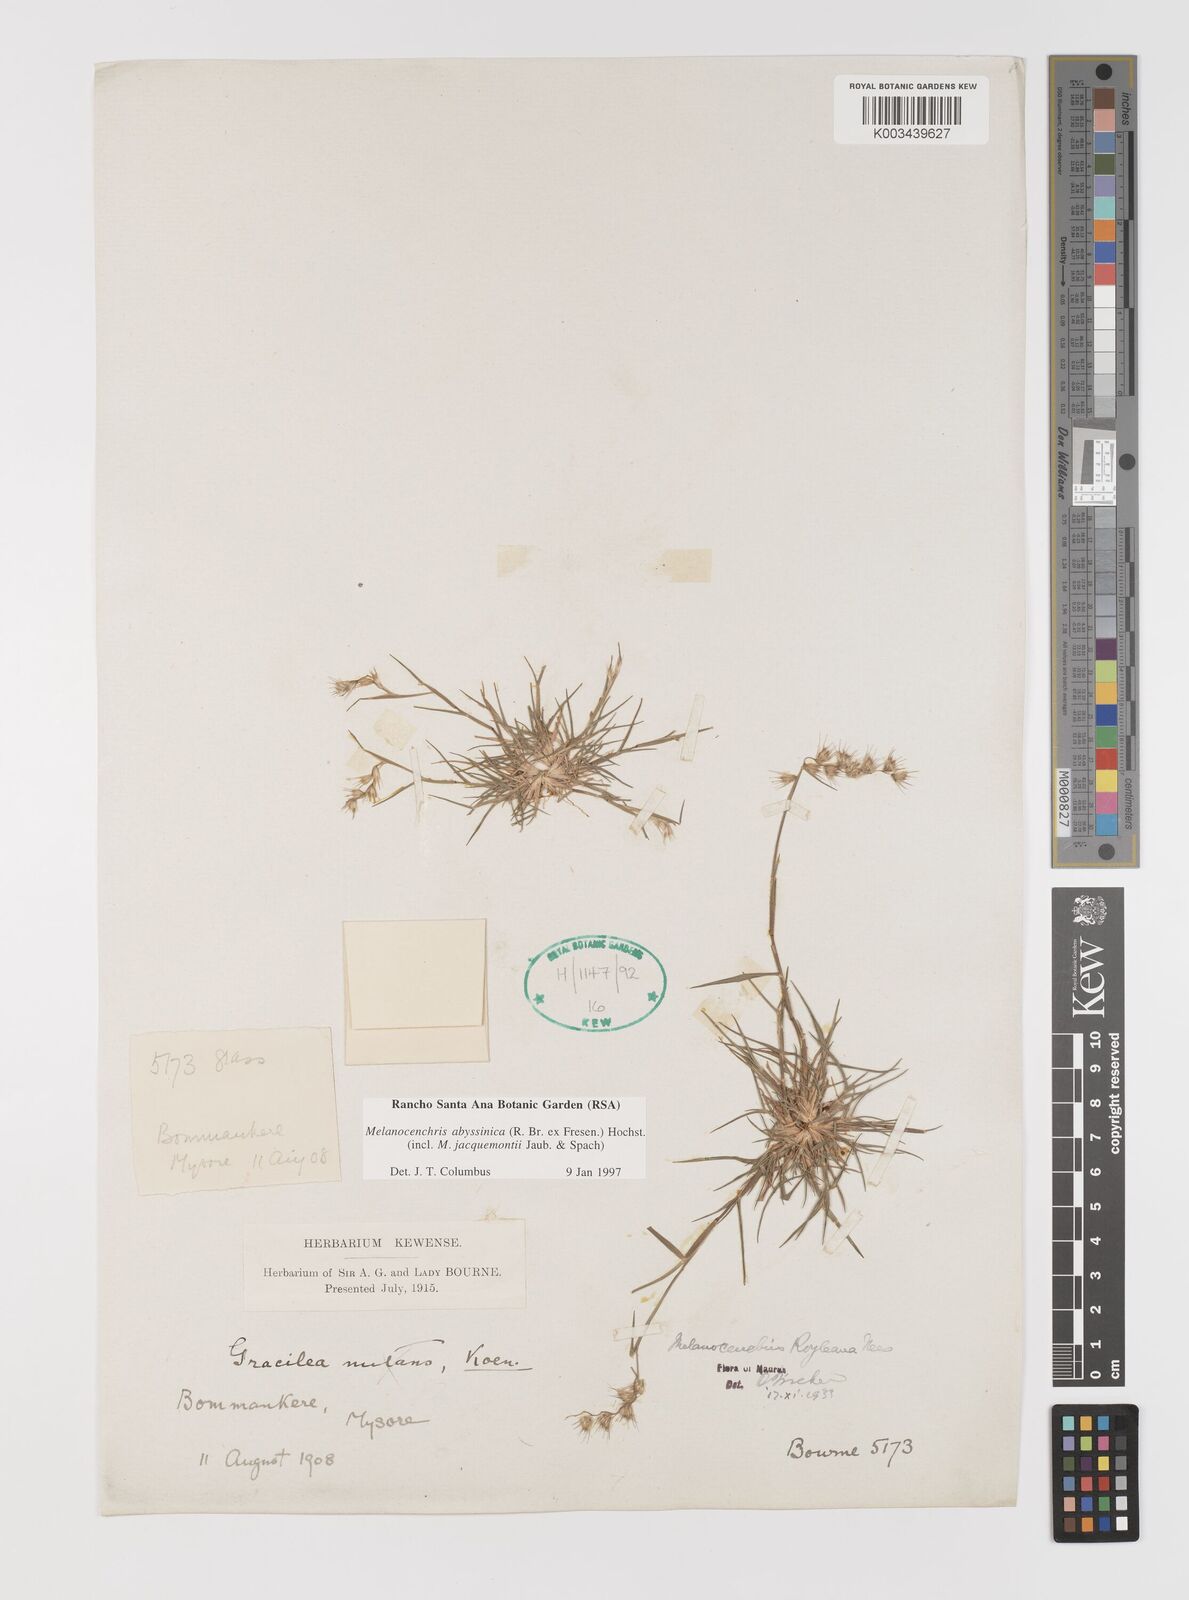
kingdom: Plantae
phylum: Tracheophyta
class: Liliopsida
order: Poales
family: Poaceae
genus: Melanocenchris
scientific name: Melanocenchris abyssinica
